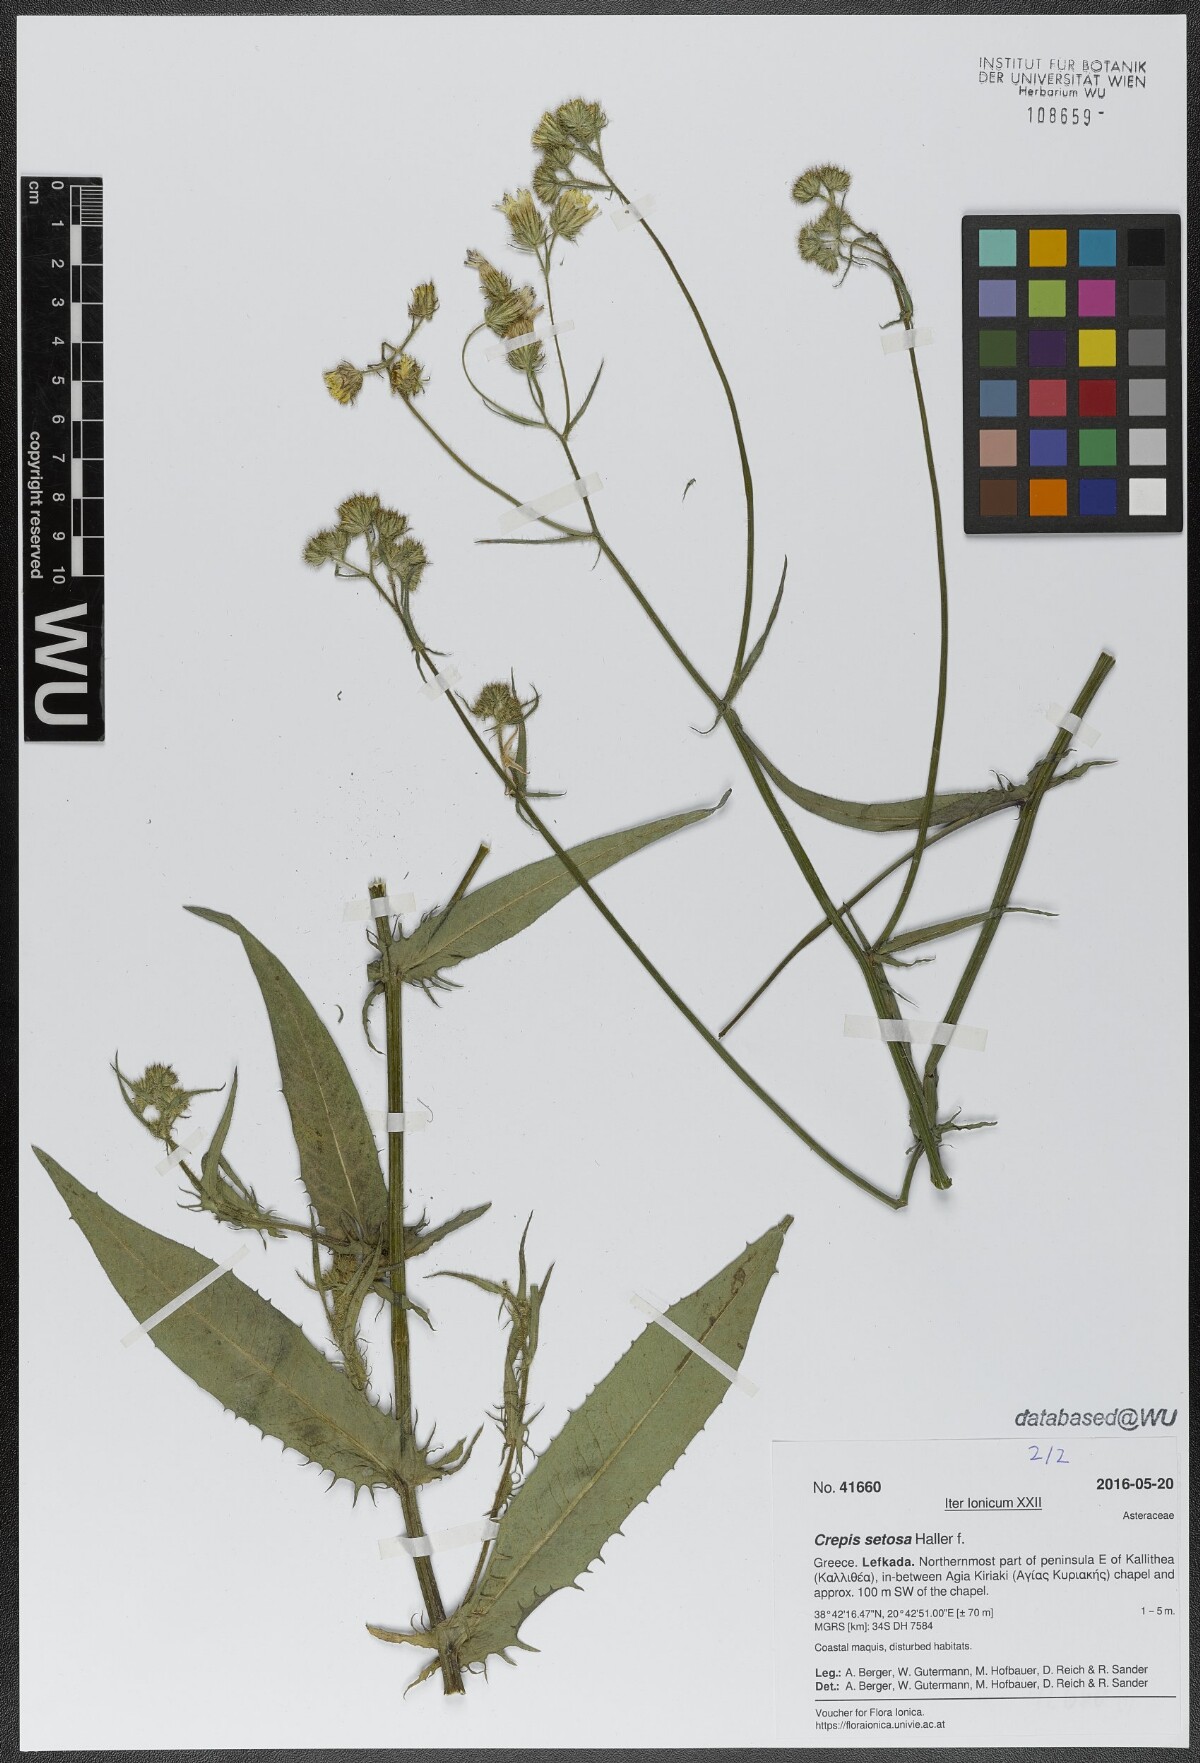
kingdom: Plantae
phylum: Tracheophyta
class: Magnoliopsida
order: Asterales
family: Asteraceae
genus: Crepis
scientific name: Crepis setosa
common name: Bristly hawk's-beard
